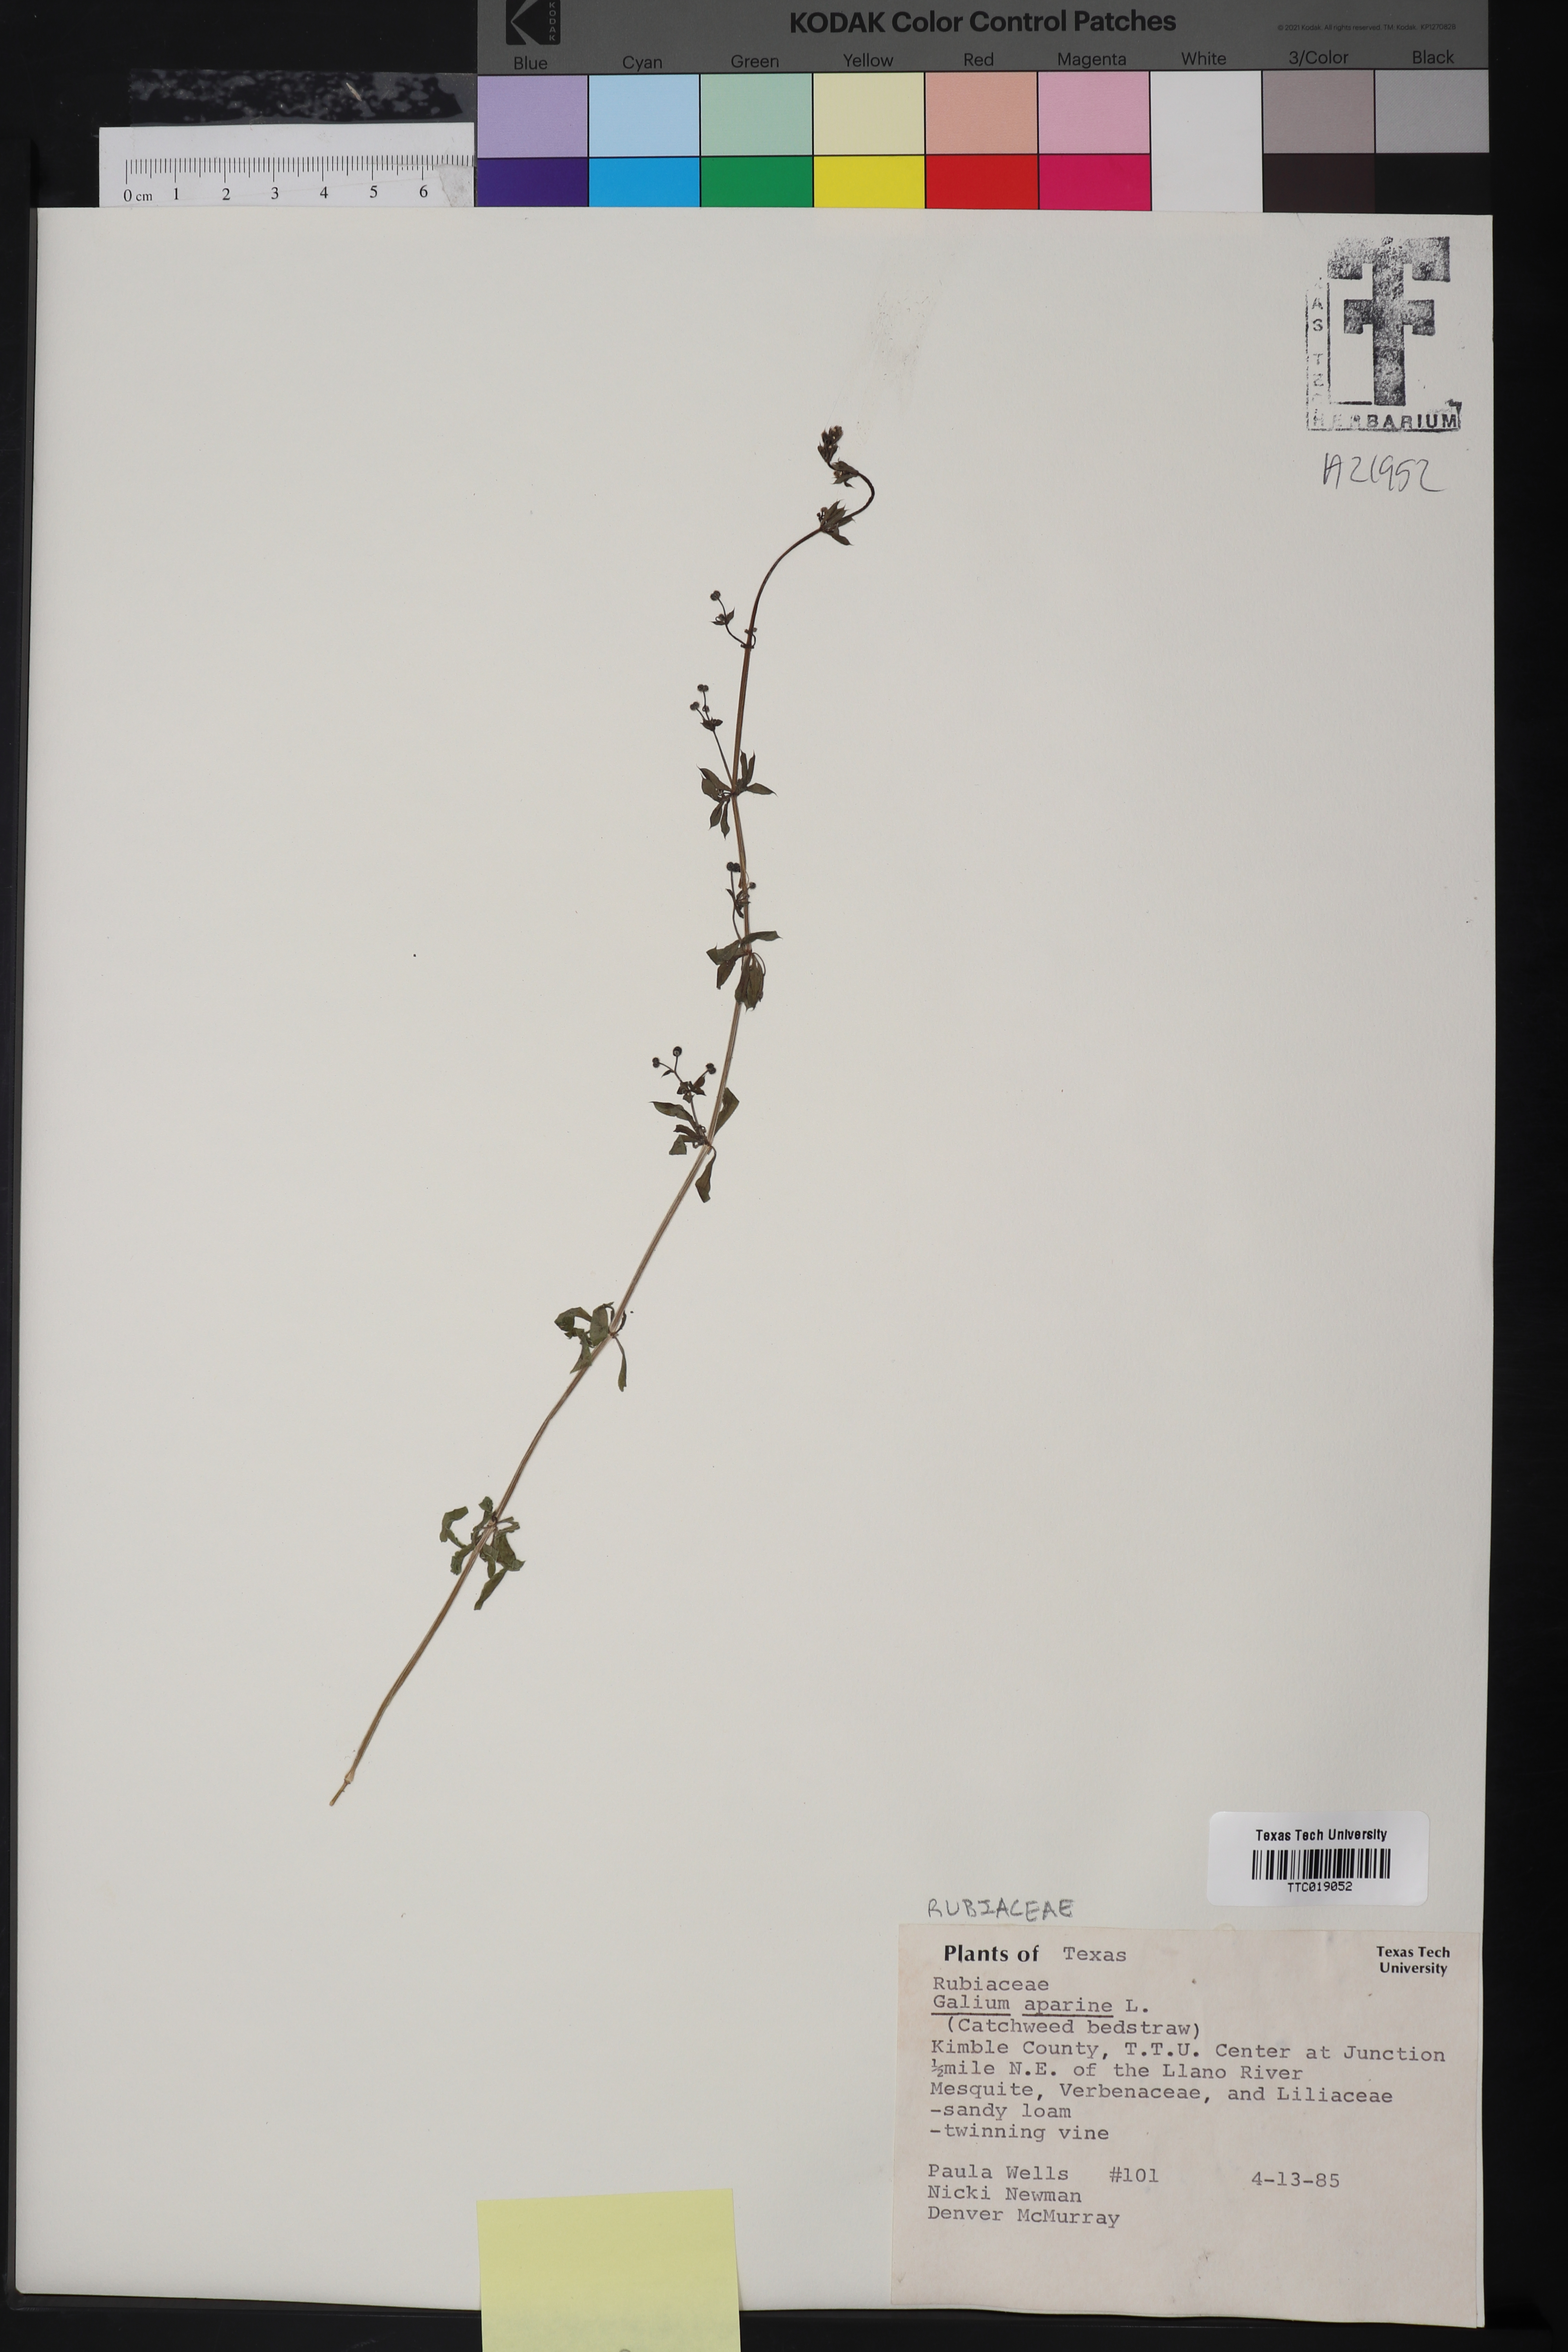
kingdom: Plantae
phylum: Tracheophyta
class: Magnoliopsida
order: Gentianales
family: Rubiaceae
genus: Galium
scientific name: Galium aparine
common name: Cleavers
